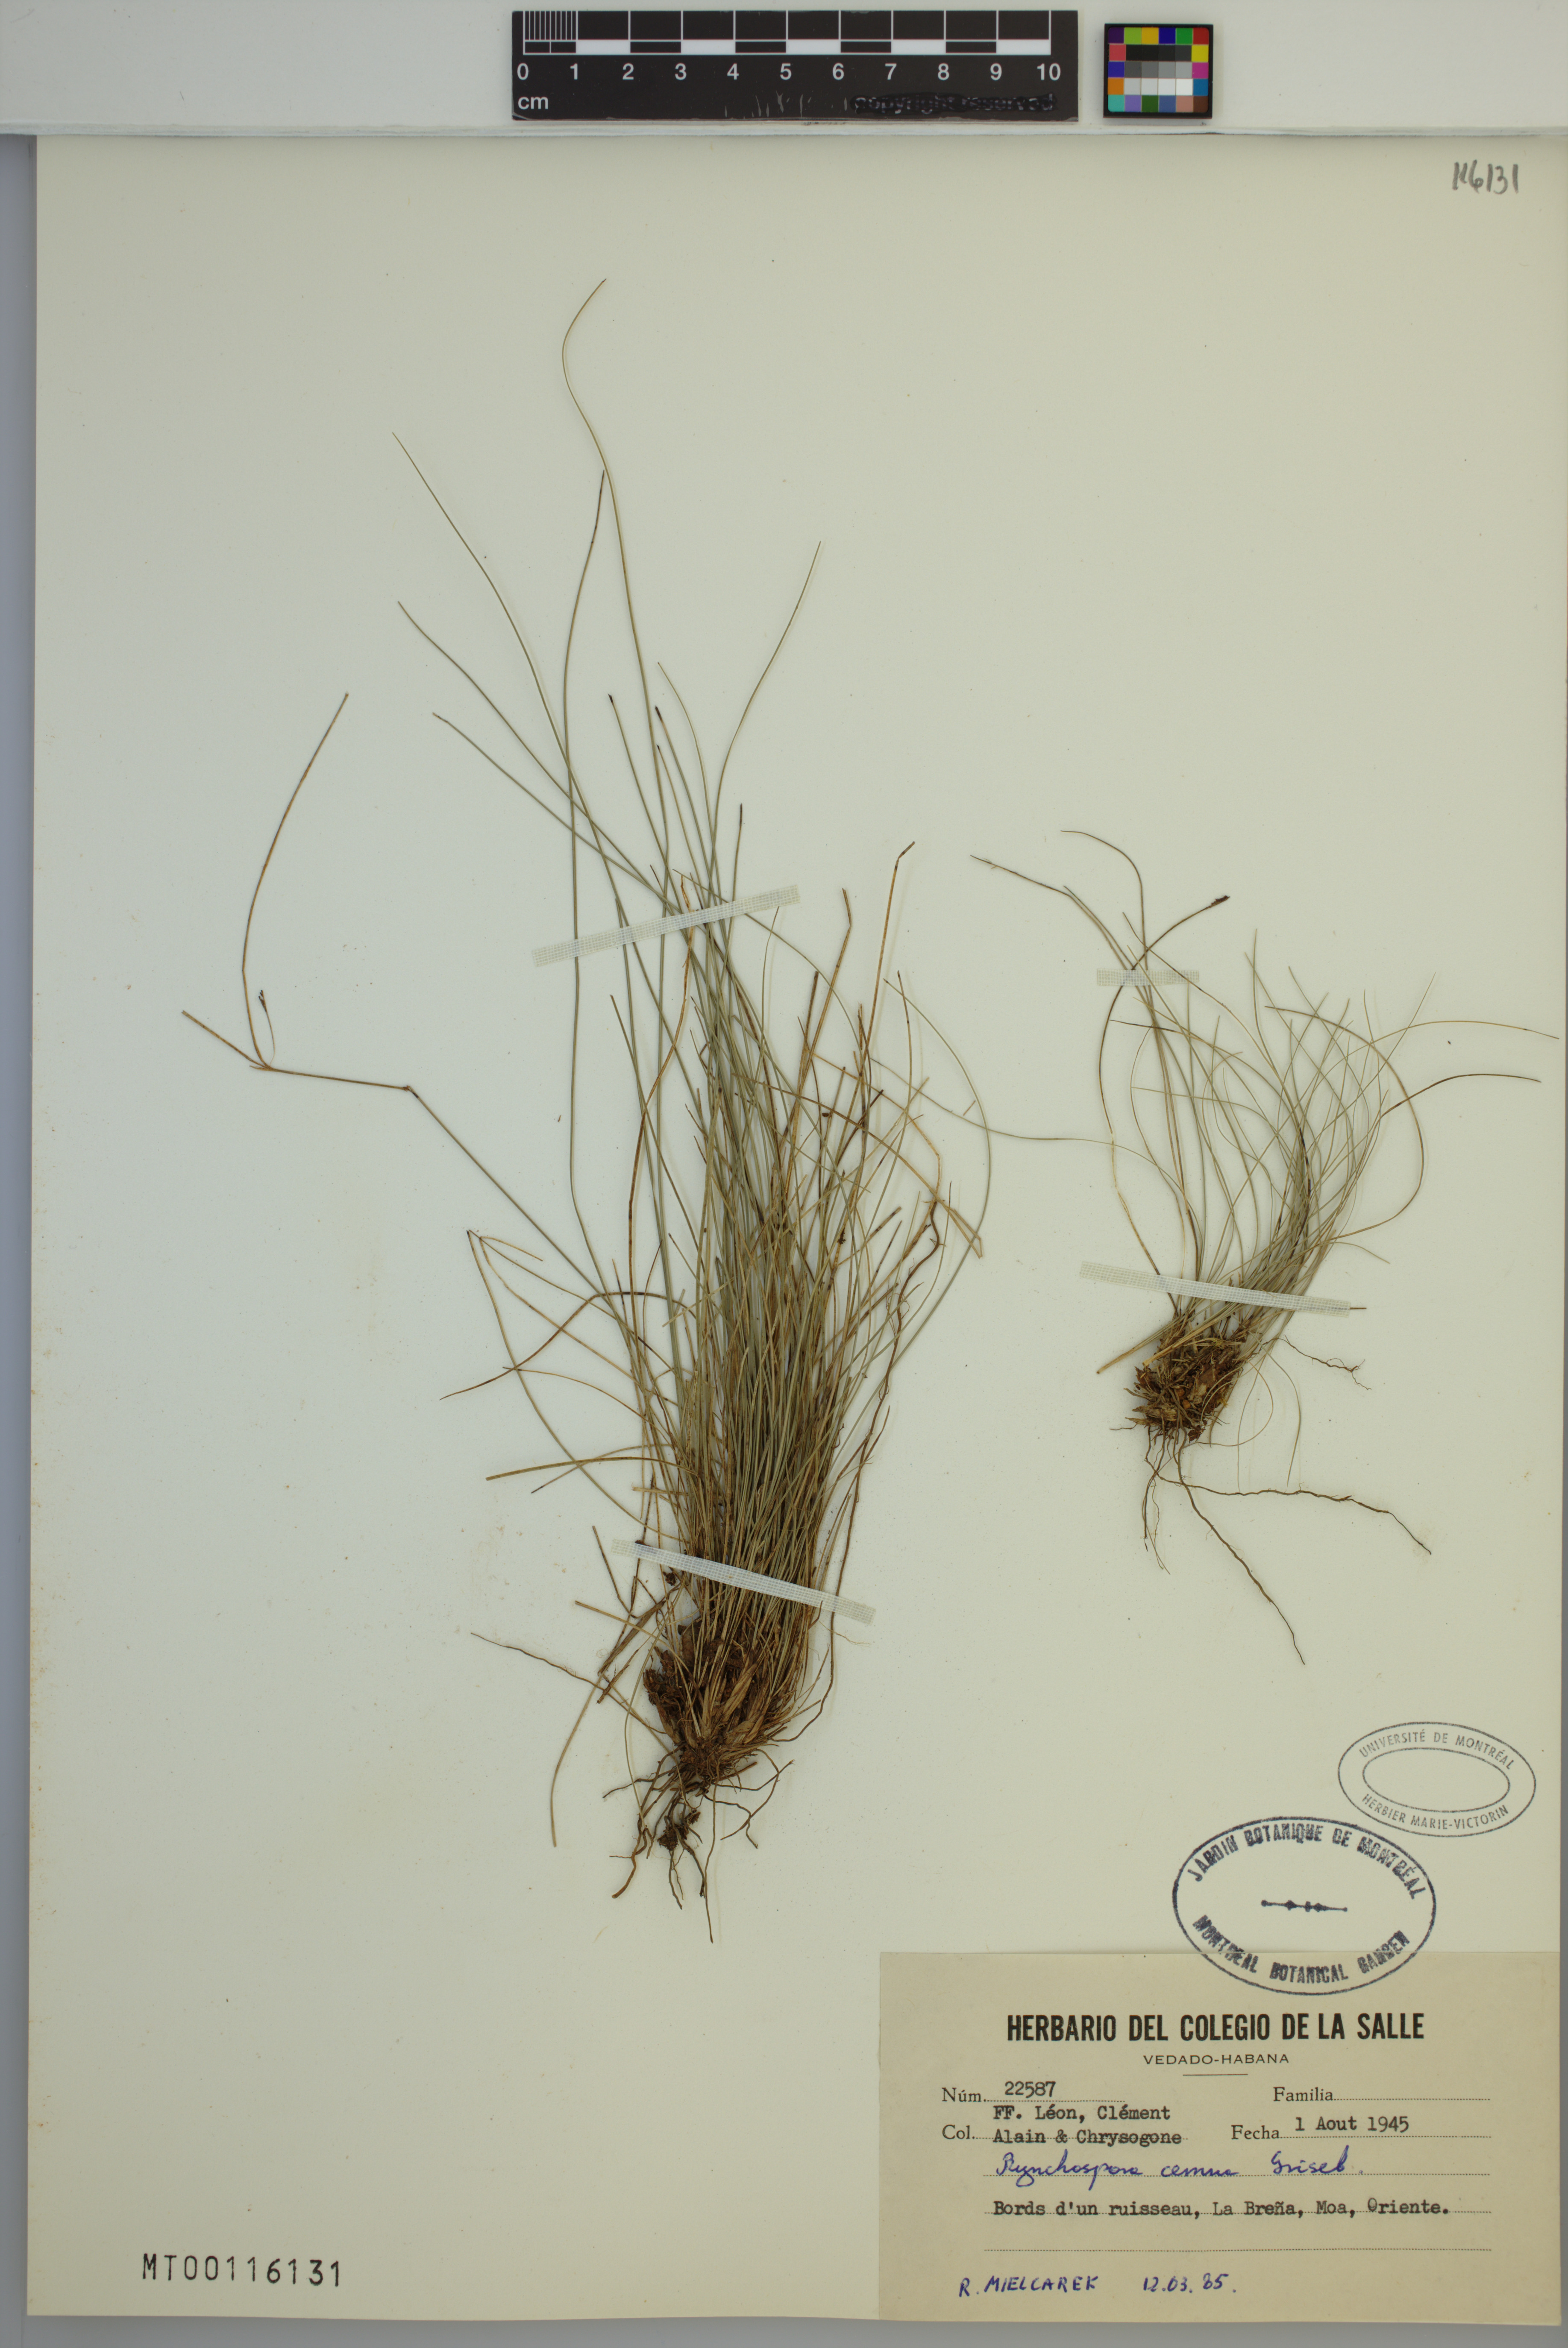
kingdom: Plantae
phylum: Tracheophyta
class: Liliopsida
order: Poales
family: Cyperaceae
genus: Rhynchospora
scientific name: Rhynchospora cernua
